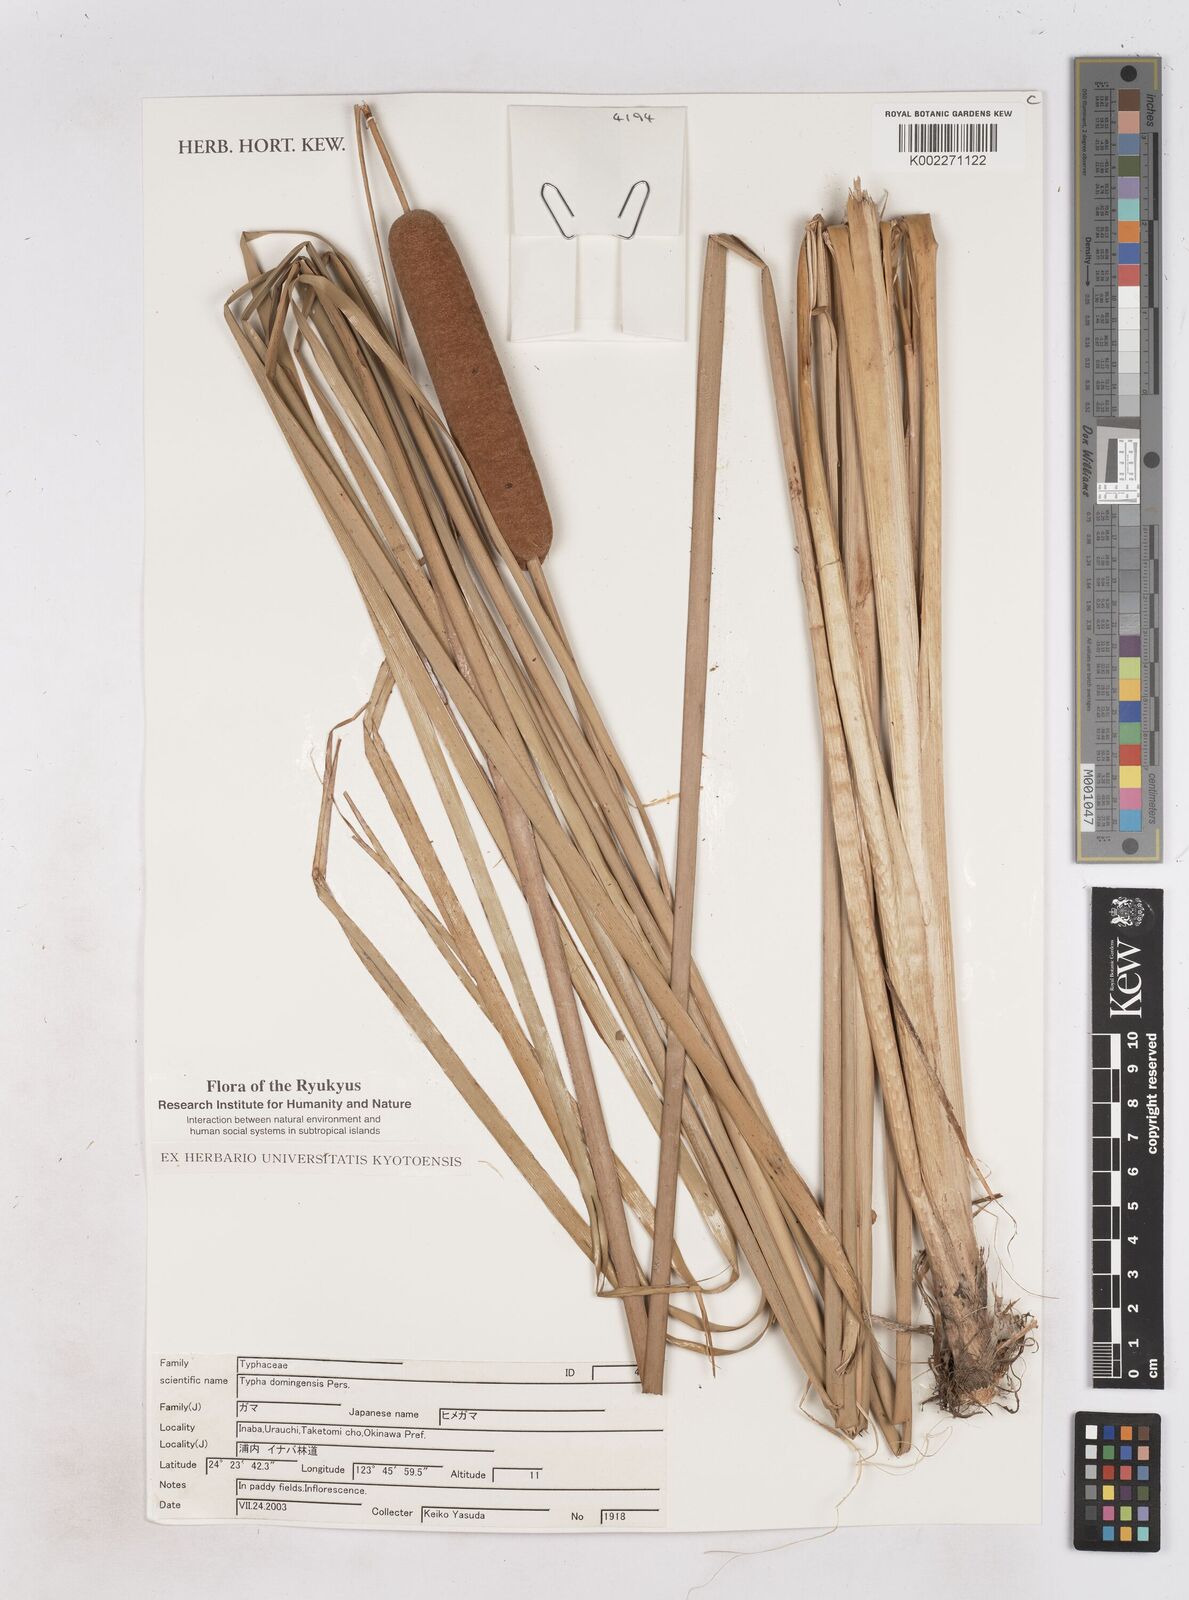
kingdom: Plantae
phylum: Tracheophyta
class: Liliopsida
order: Poales
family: Typhaceae
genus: Typha
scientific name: Typha domingensis
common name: Southern cattail
